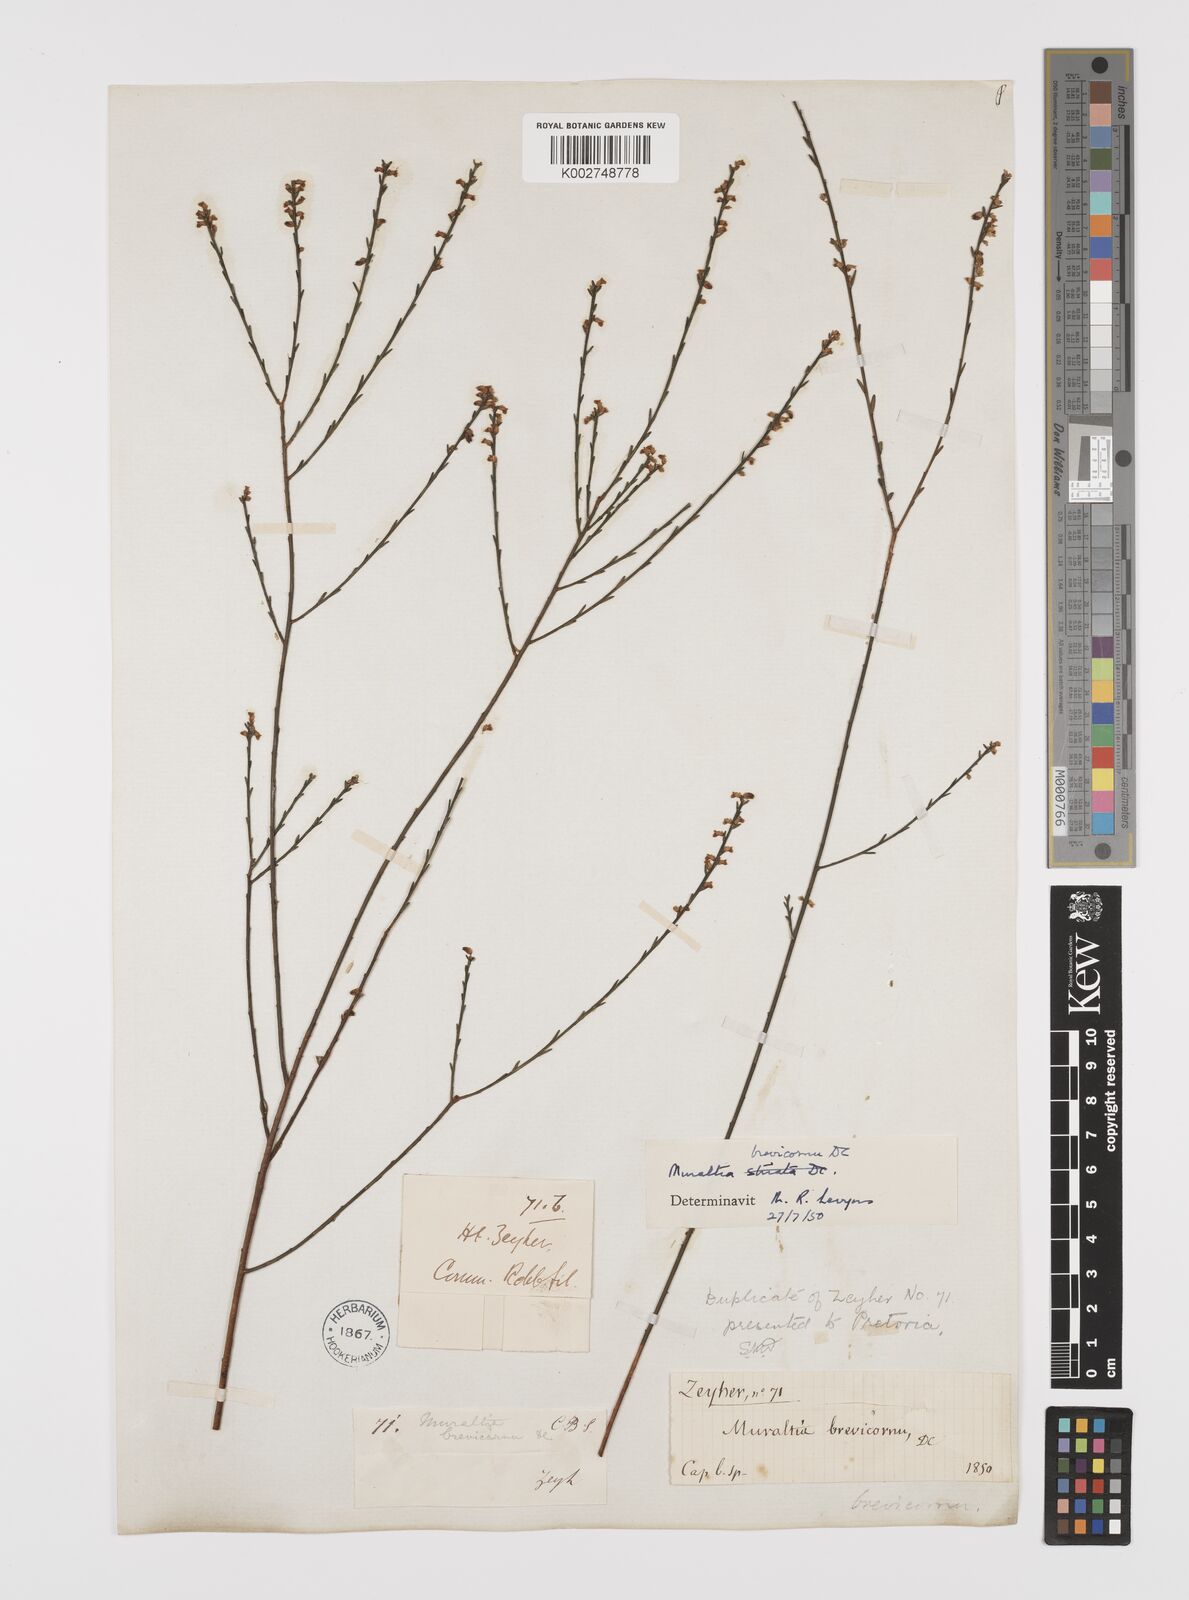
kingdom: Plantae
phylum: Tracheophyta
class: Magnoliopsida
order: Fabales
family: Polygalaceae
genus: Muraltia
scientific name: Muraltia striata
